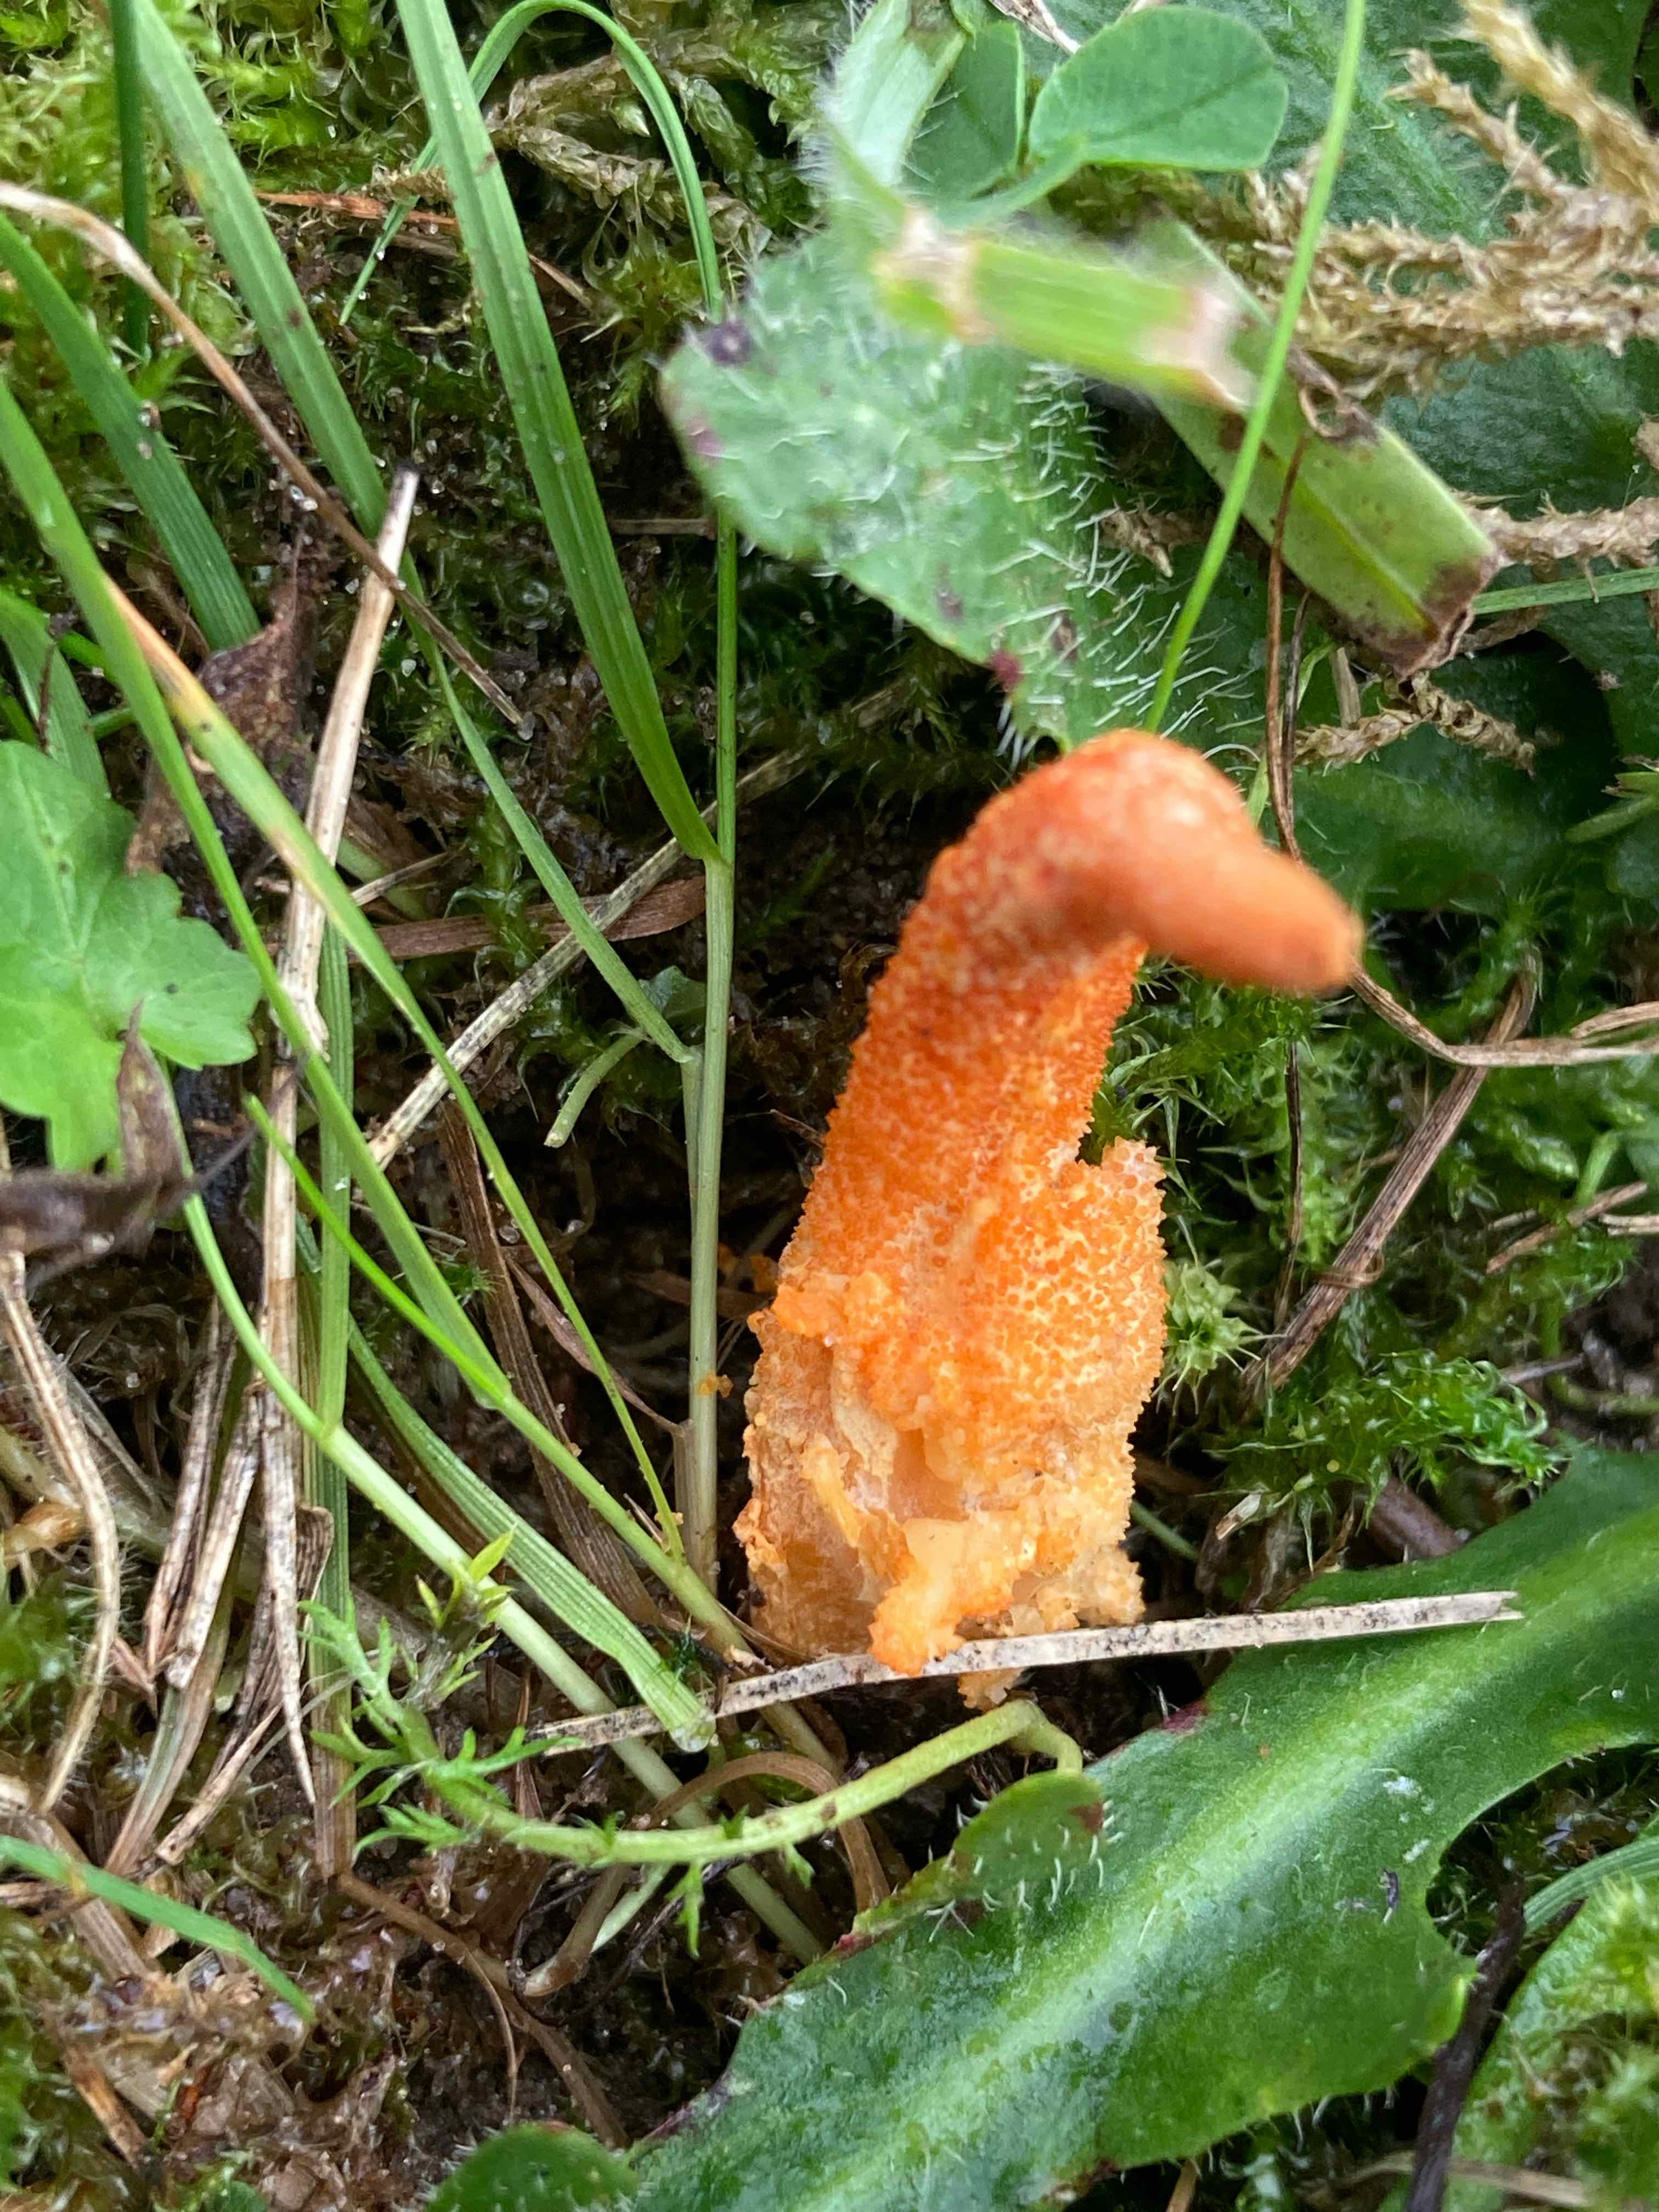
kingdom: Fungi
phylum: Ascomycota
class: Sordariomycetes
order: Hypocreales
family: Cordycipitaceae
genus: Cordyceps
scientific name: Cordyceps militaris
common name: puppe-snyltekølle
